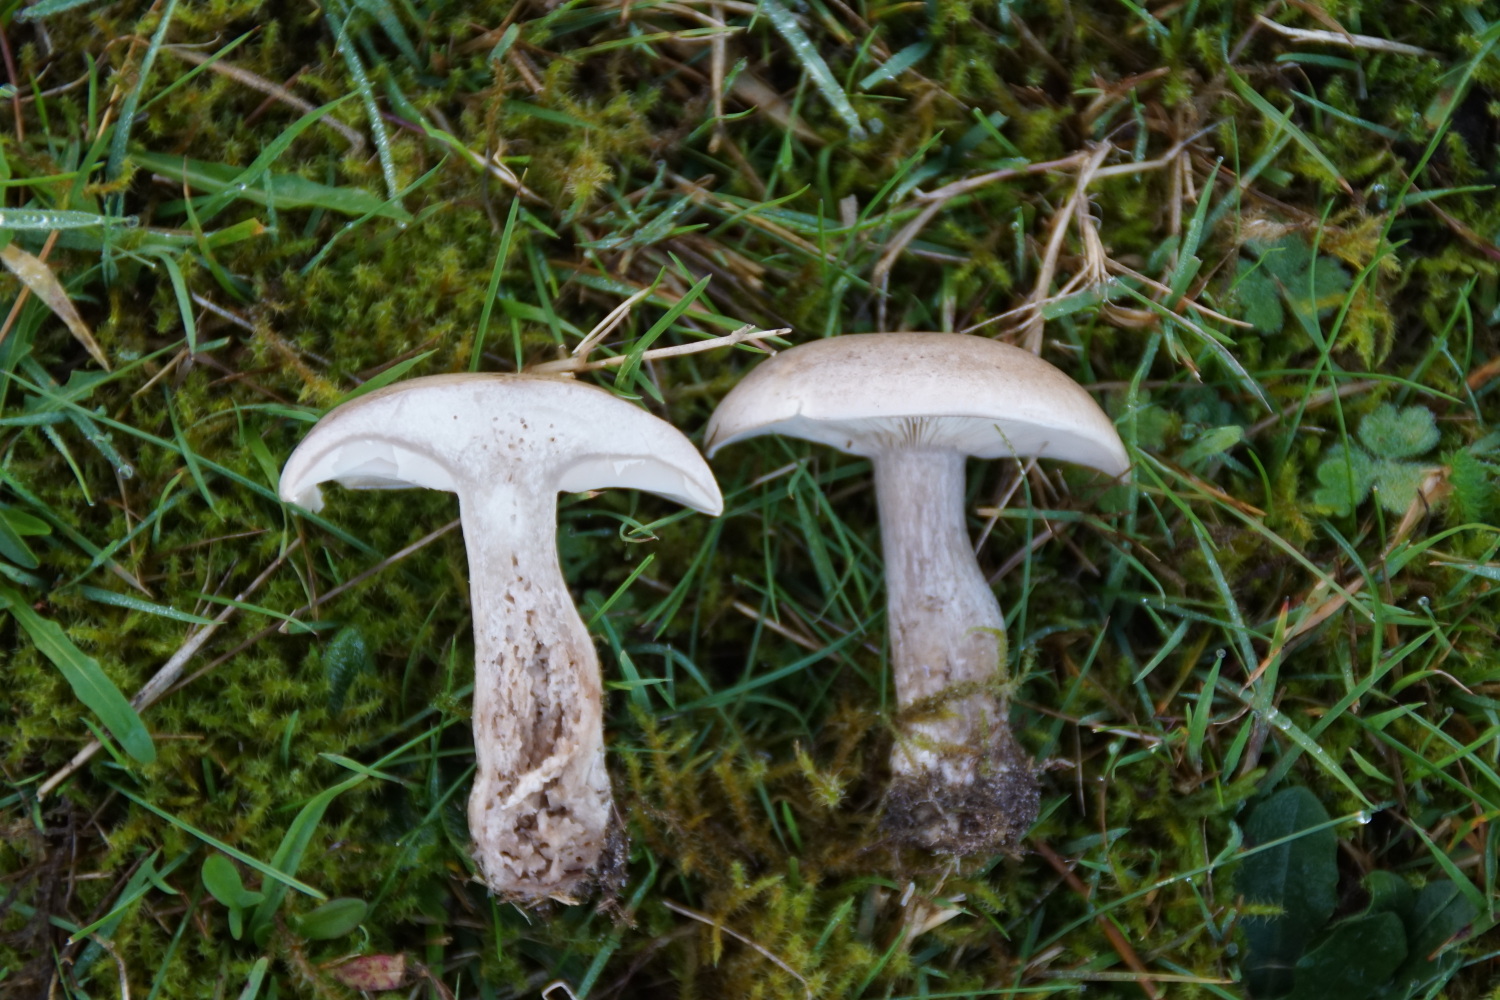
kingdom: Fungi
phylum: Basidiomycota
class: Agaricomycetes
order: Agaricales
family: Tricholomataceae
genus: Lepista
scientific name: Lepista panaeolus
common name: marmoreret hekseringshat
